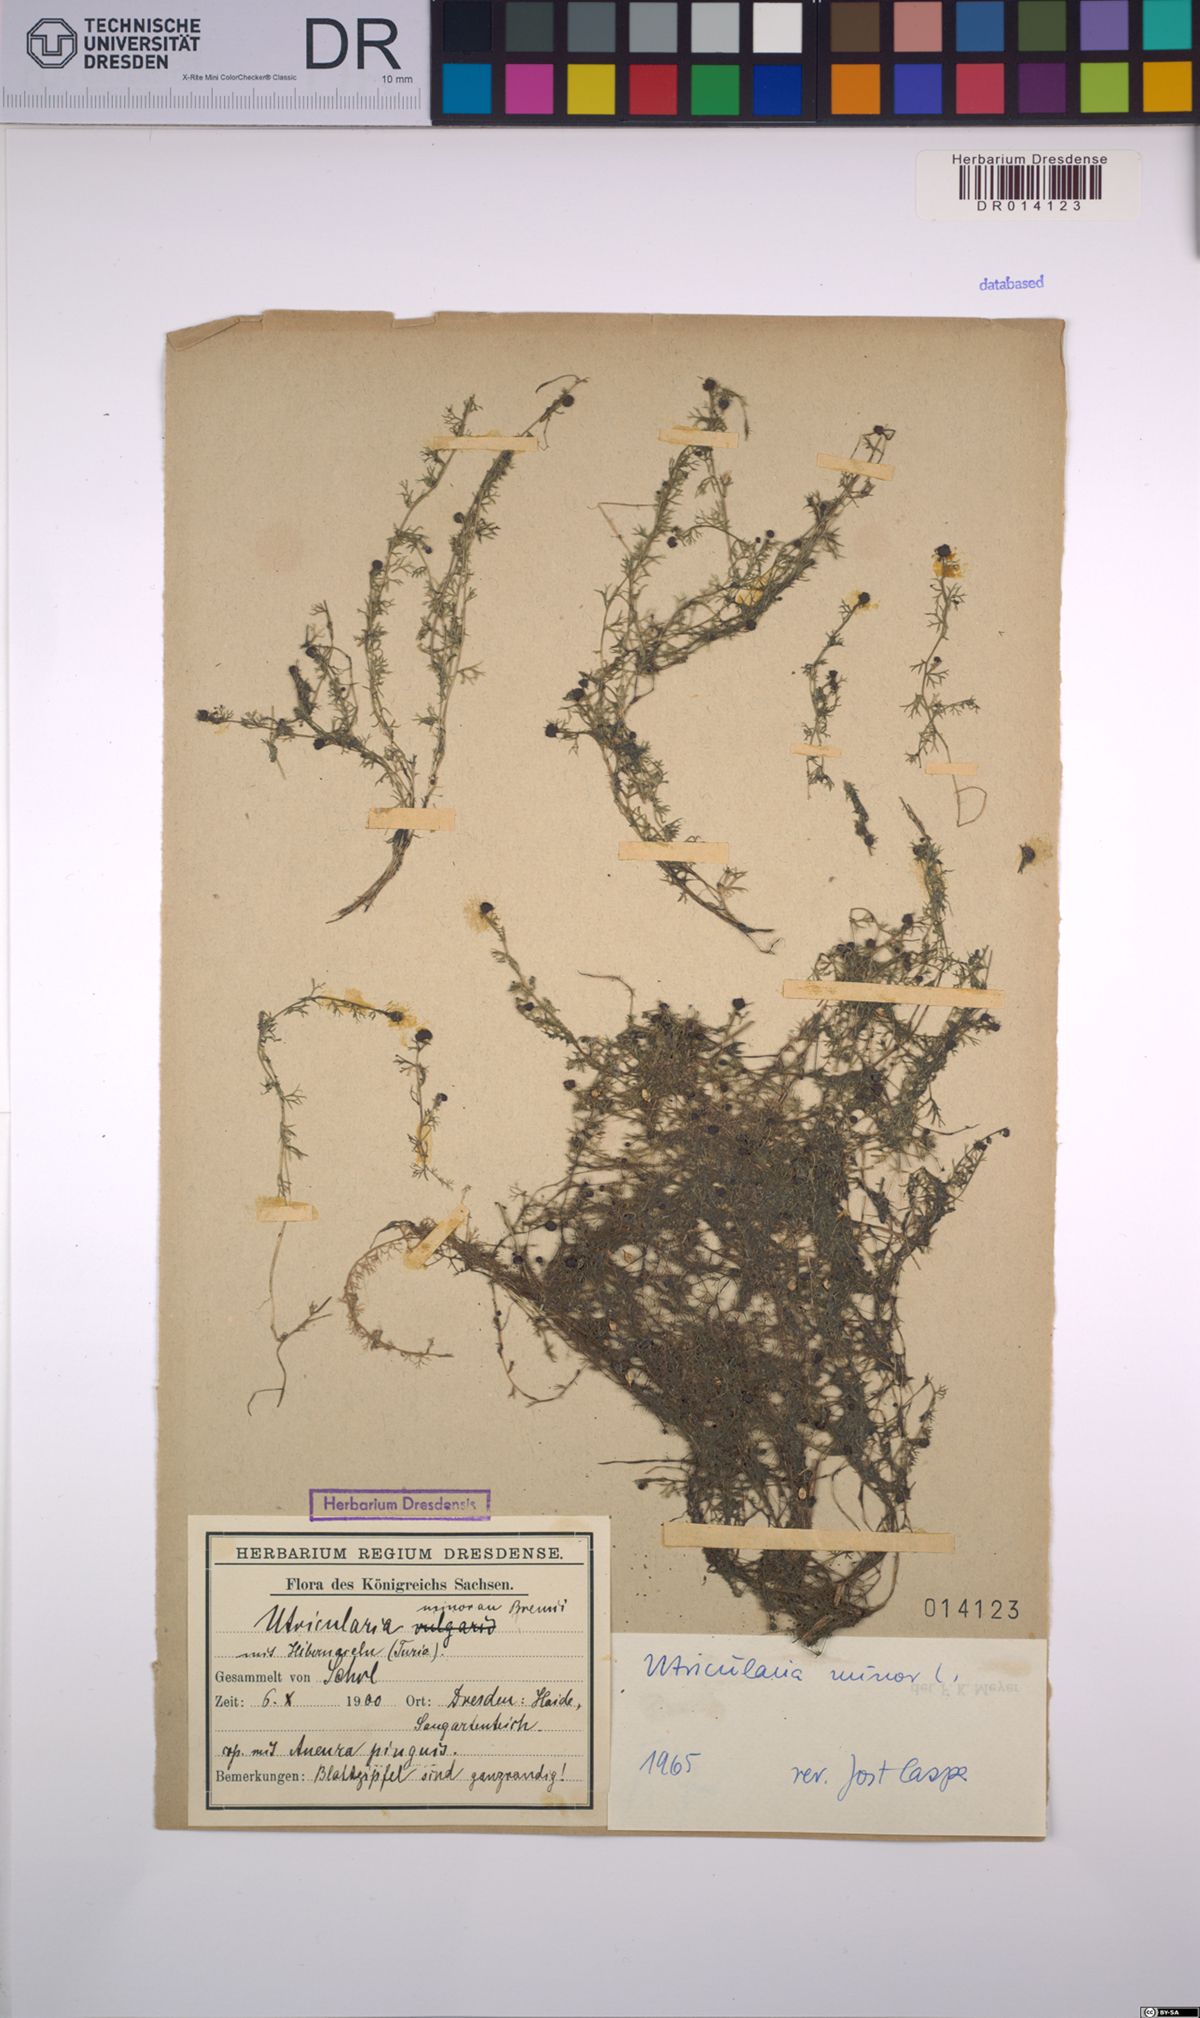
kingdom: Plantae
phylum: Tracheophyta
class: Magnoliopsida
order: Lamiales
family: Lentibulariaceae
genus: Utricularia
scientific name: Utricularia minor
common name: Lesser bladderwort
